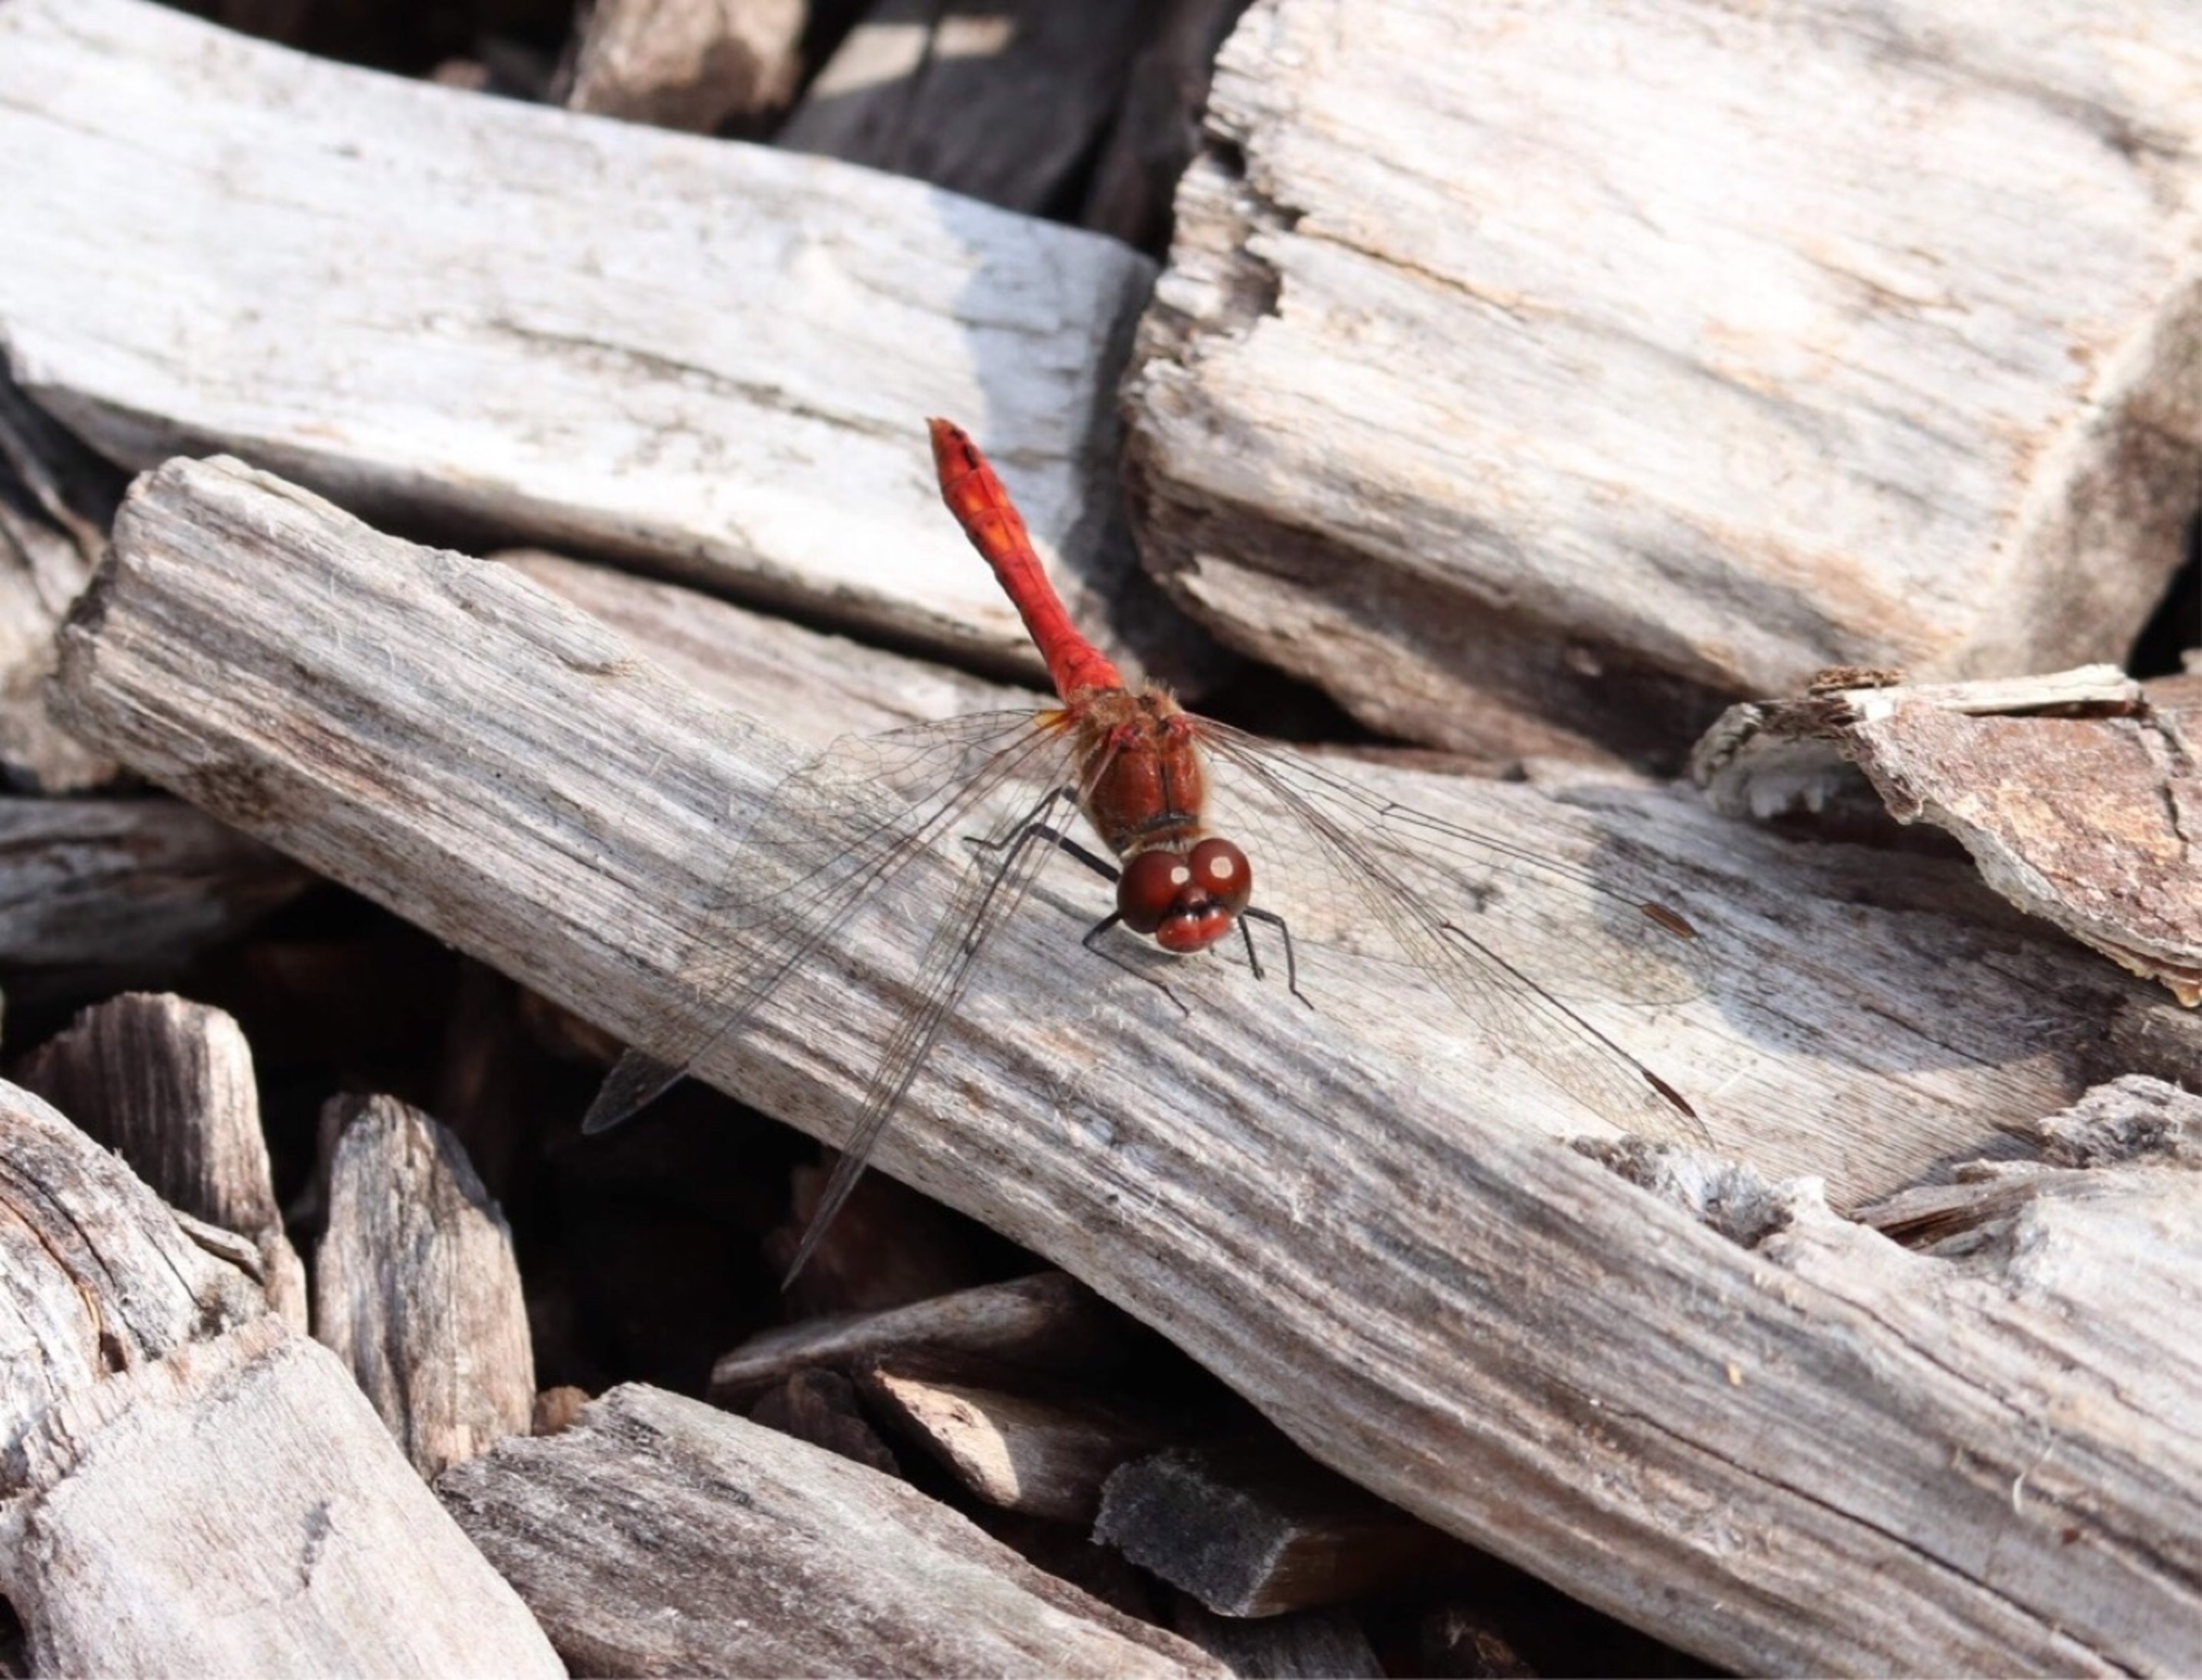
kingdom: Animalia
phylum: Arthropoda
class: Insecta
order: Odonata
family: Libellulidae
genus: Sympetrum
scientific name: Sympetrum sanguineum
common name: Blodrød hedelibel
